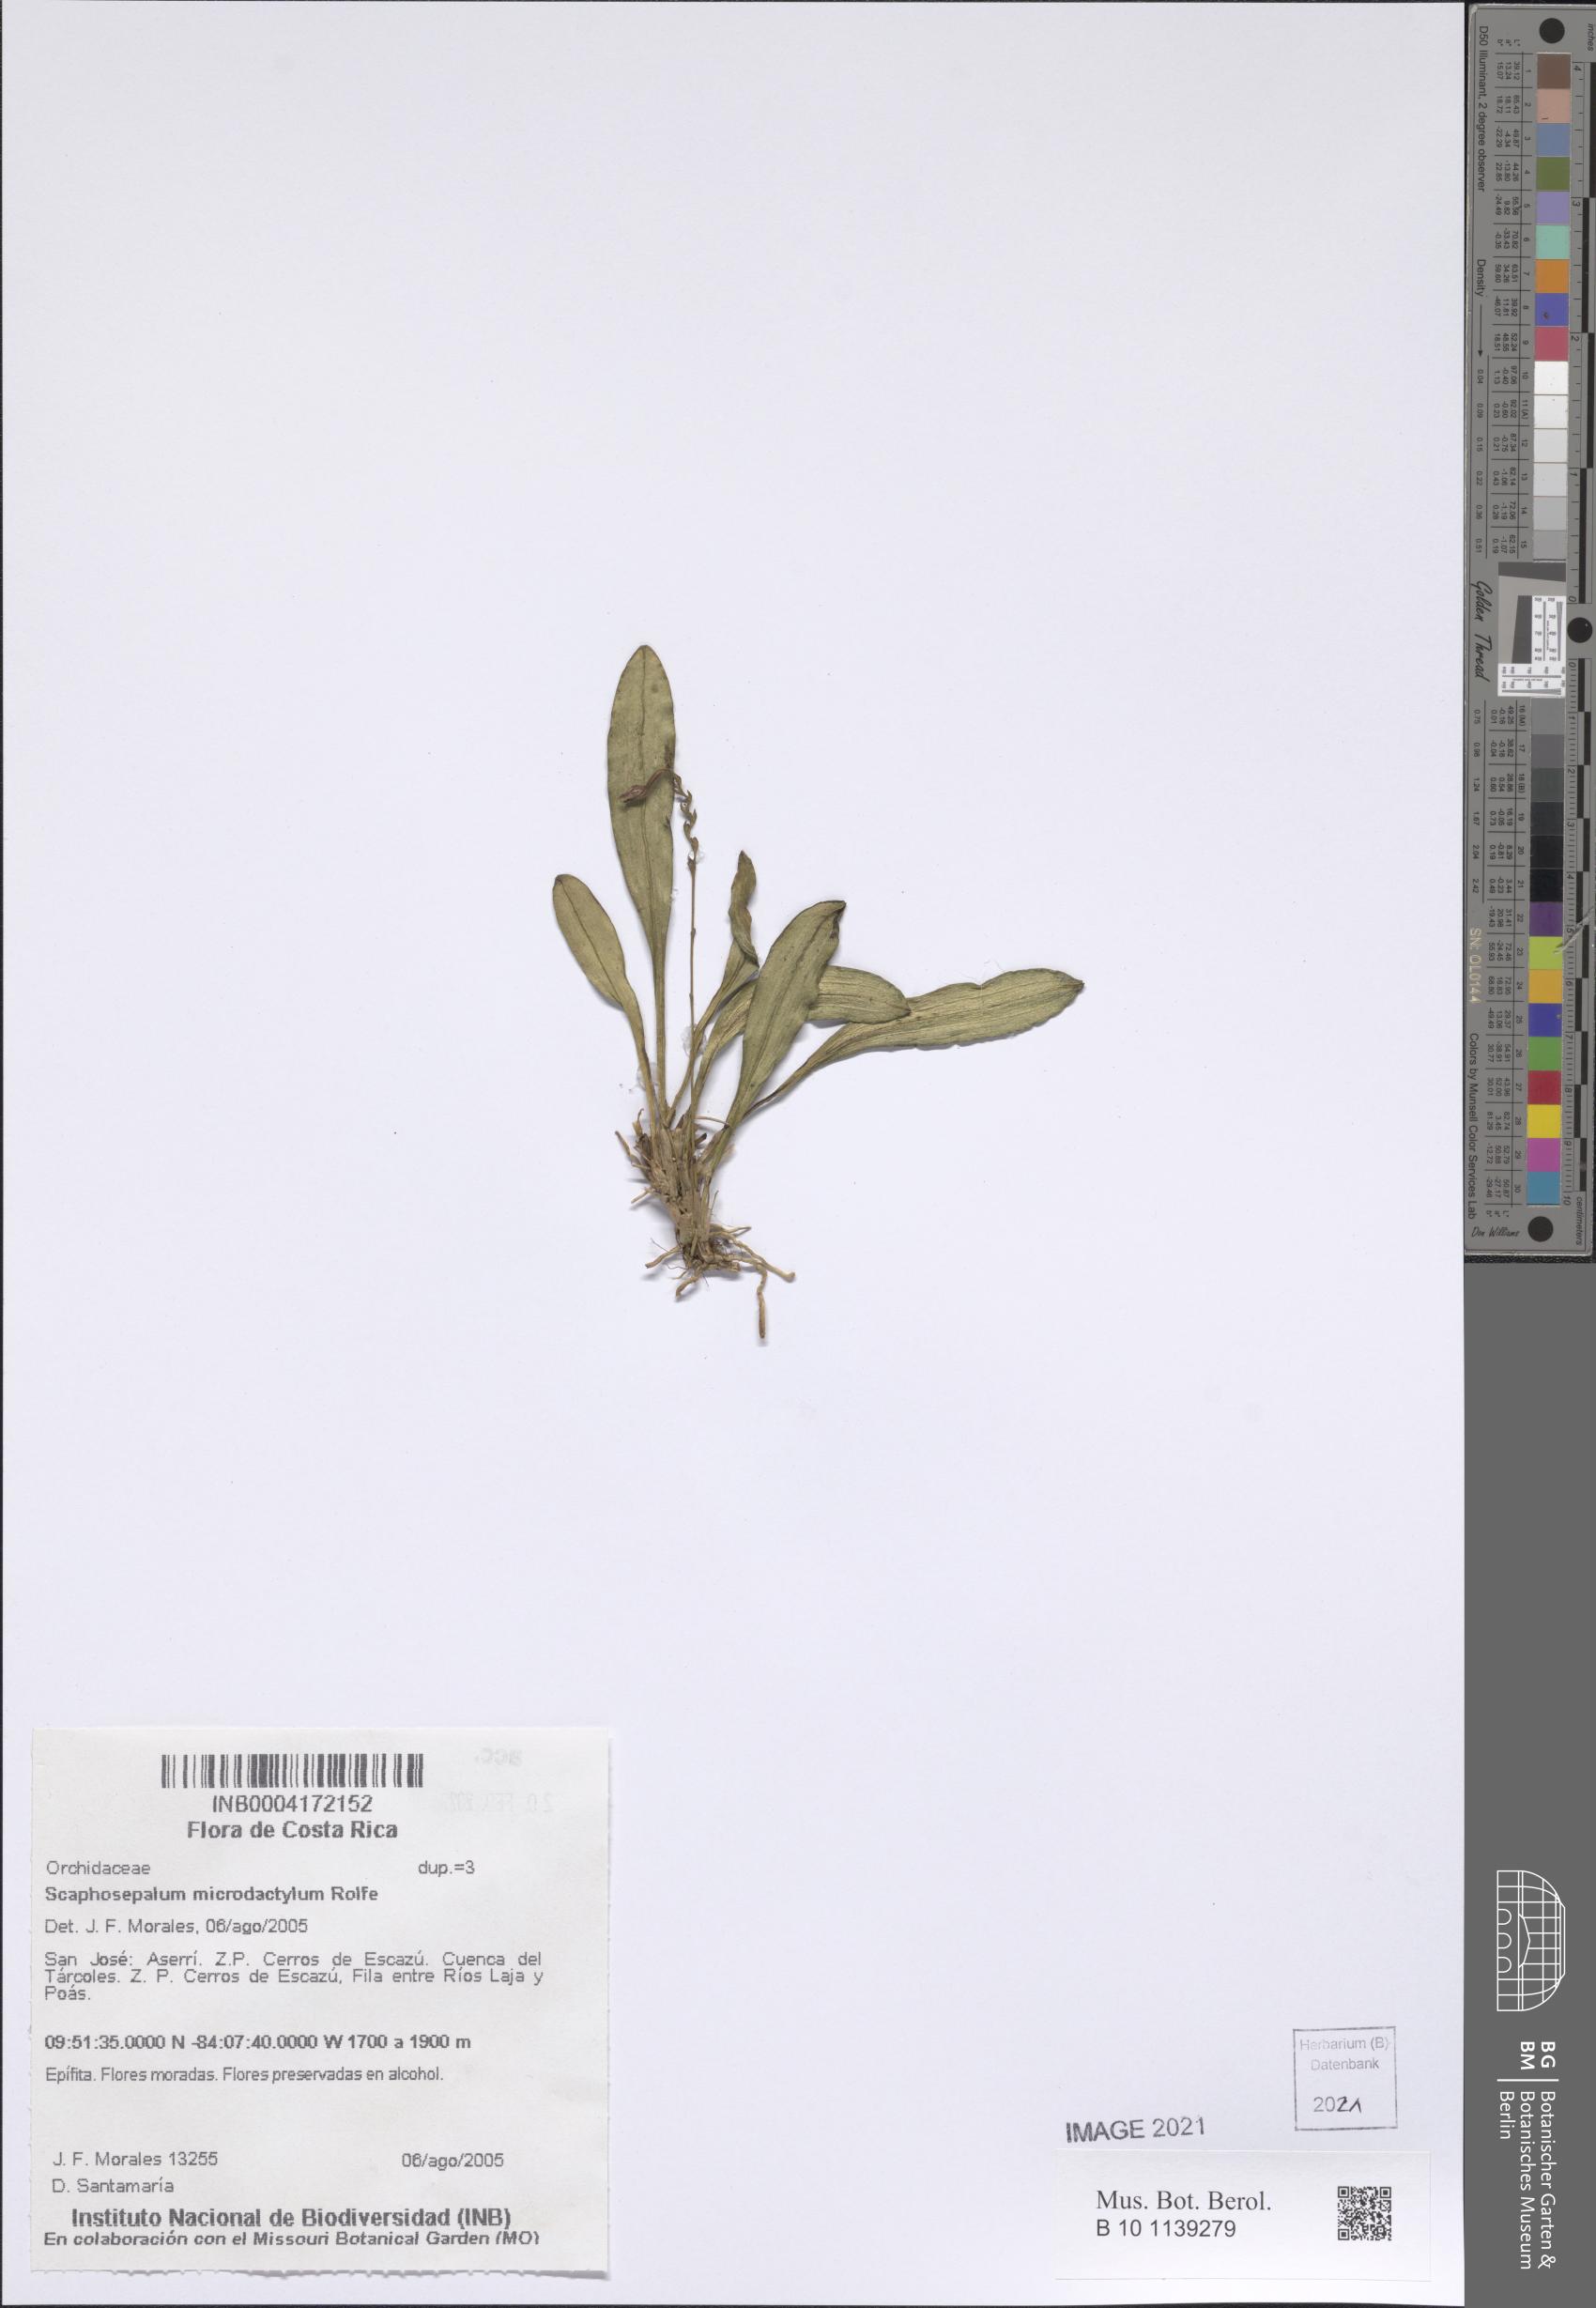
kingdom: Plantae
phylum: Tracheophyta
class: Liliopsida
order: Asparagales
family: Orchidaceae
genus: Scaphosepalum
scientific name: Scaphosepalum microdactylum
